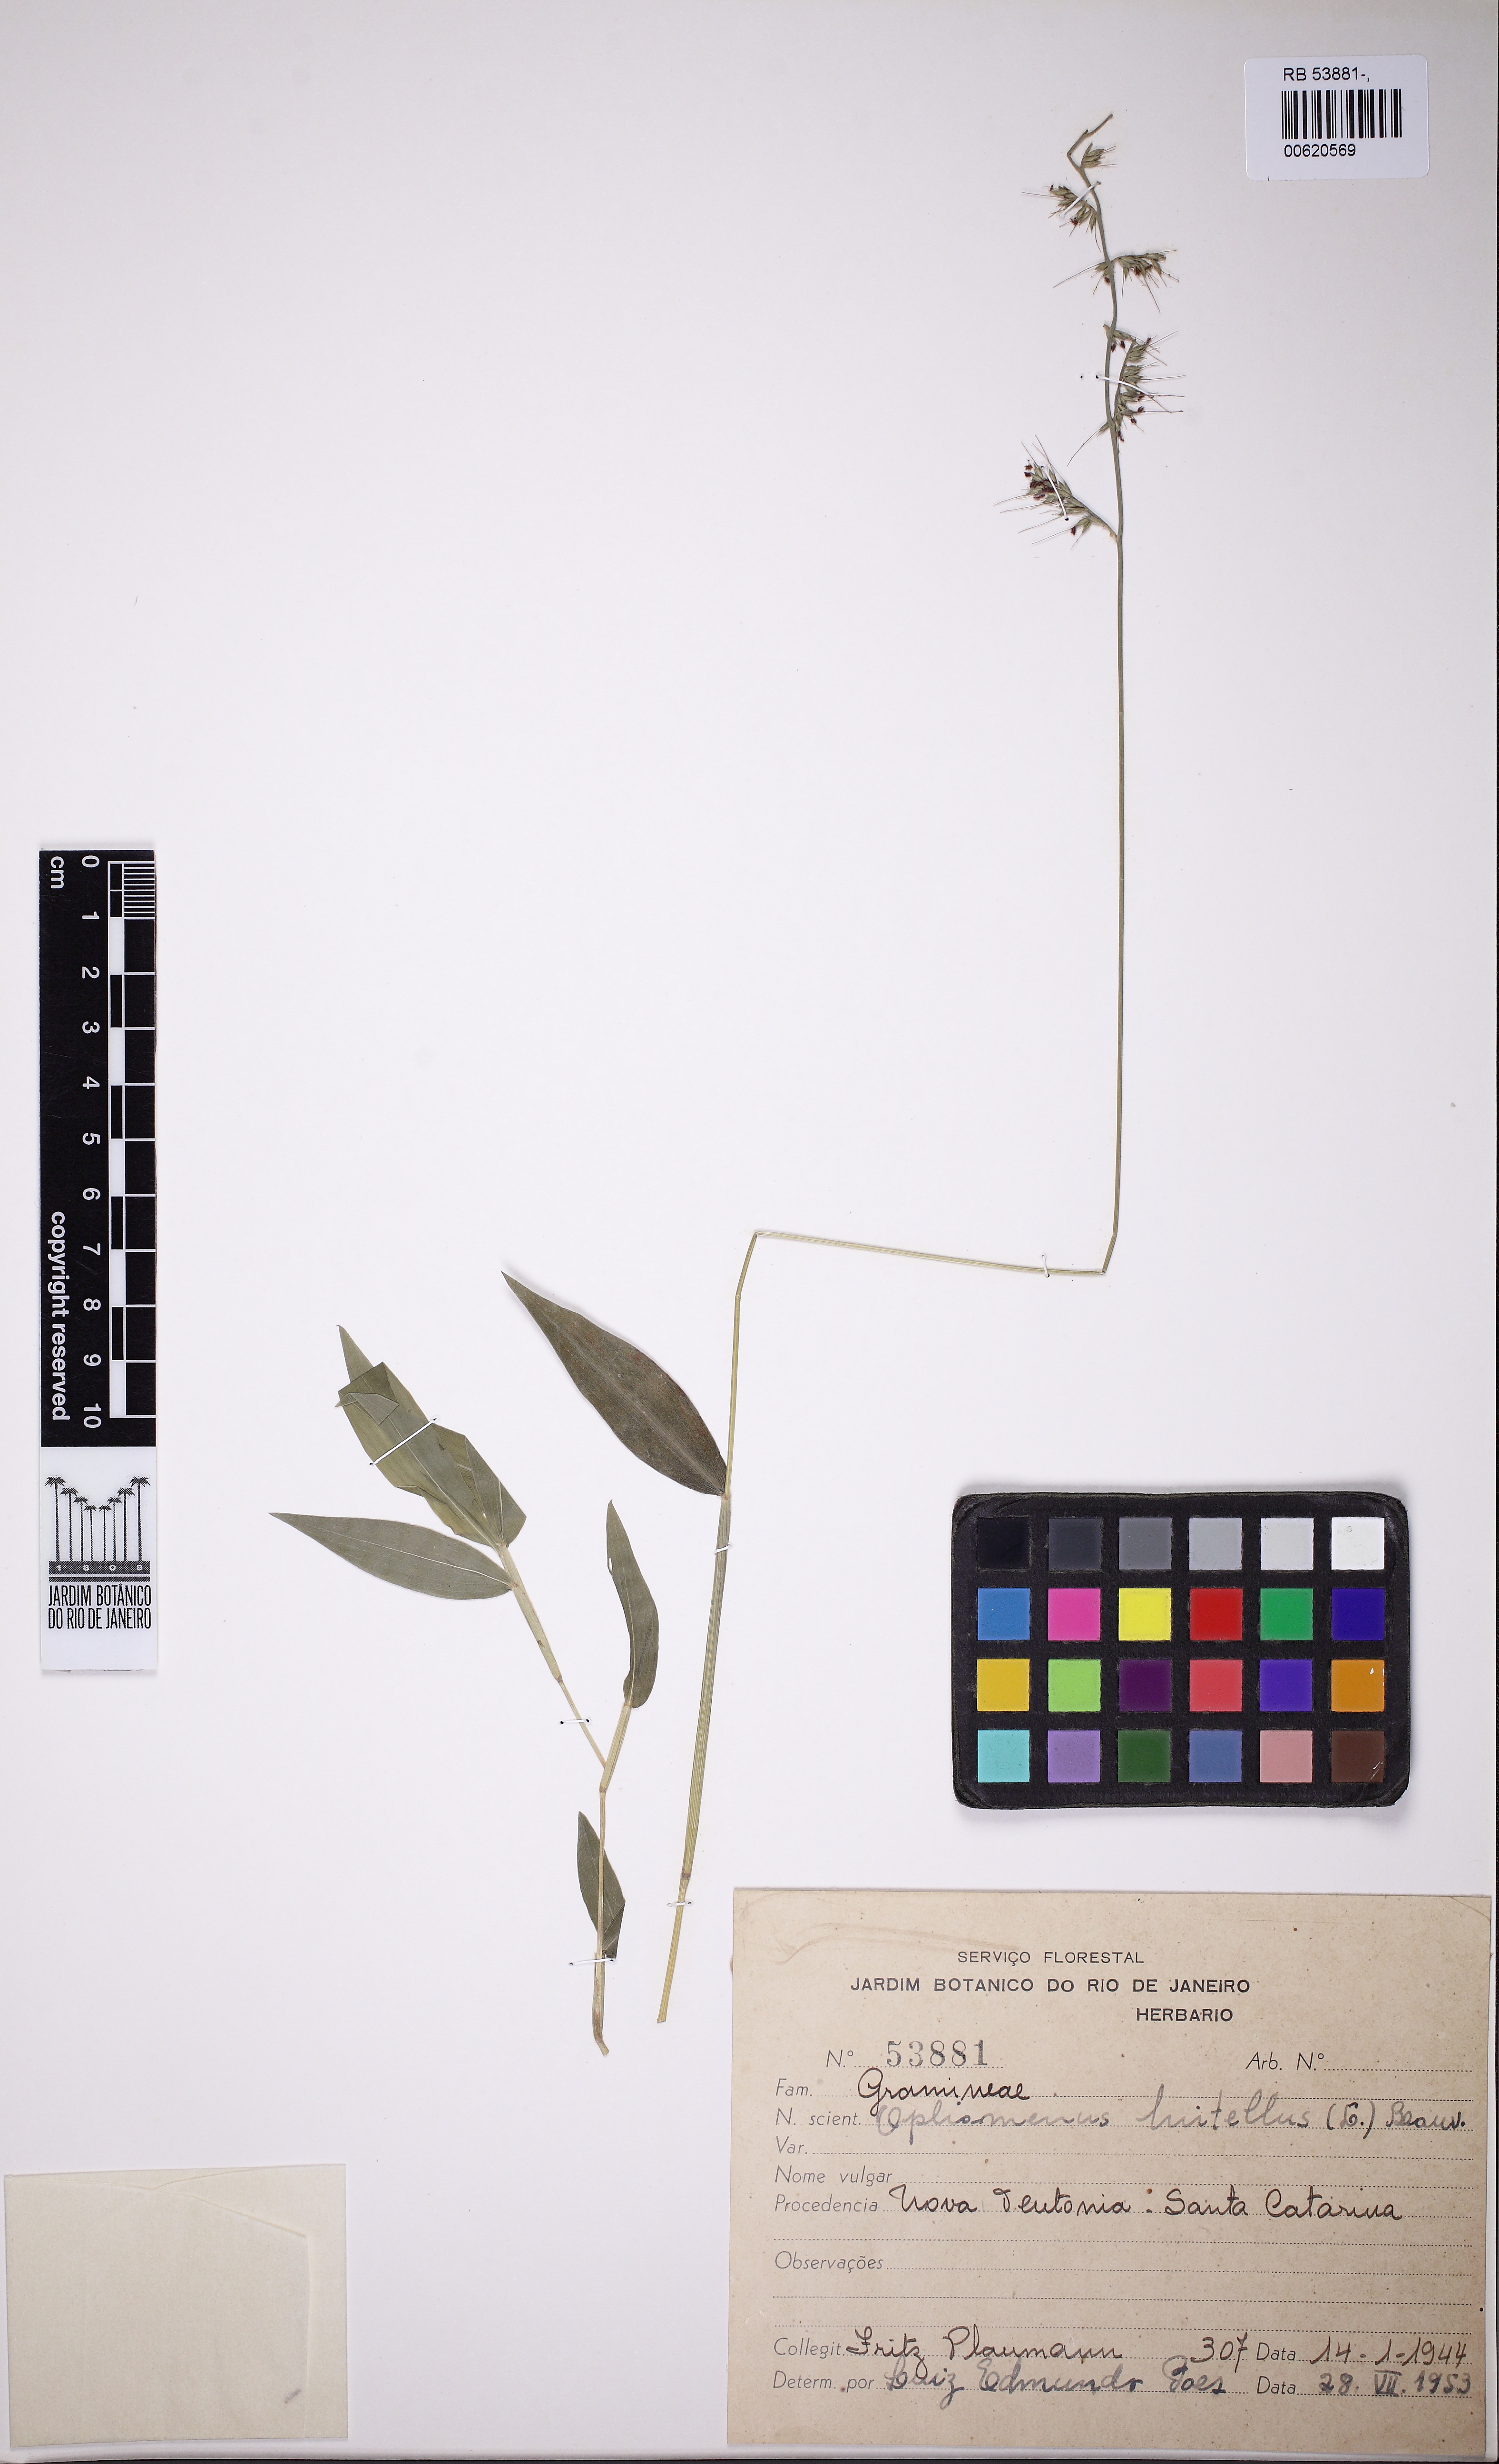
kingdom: Plantae
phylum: Tracheophyta
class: Liliopsida
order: Poales
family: Poaceae
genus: Oplismenus
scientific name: Oplismenus hirtellus
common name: Basketgrass
